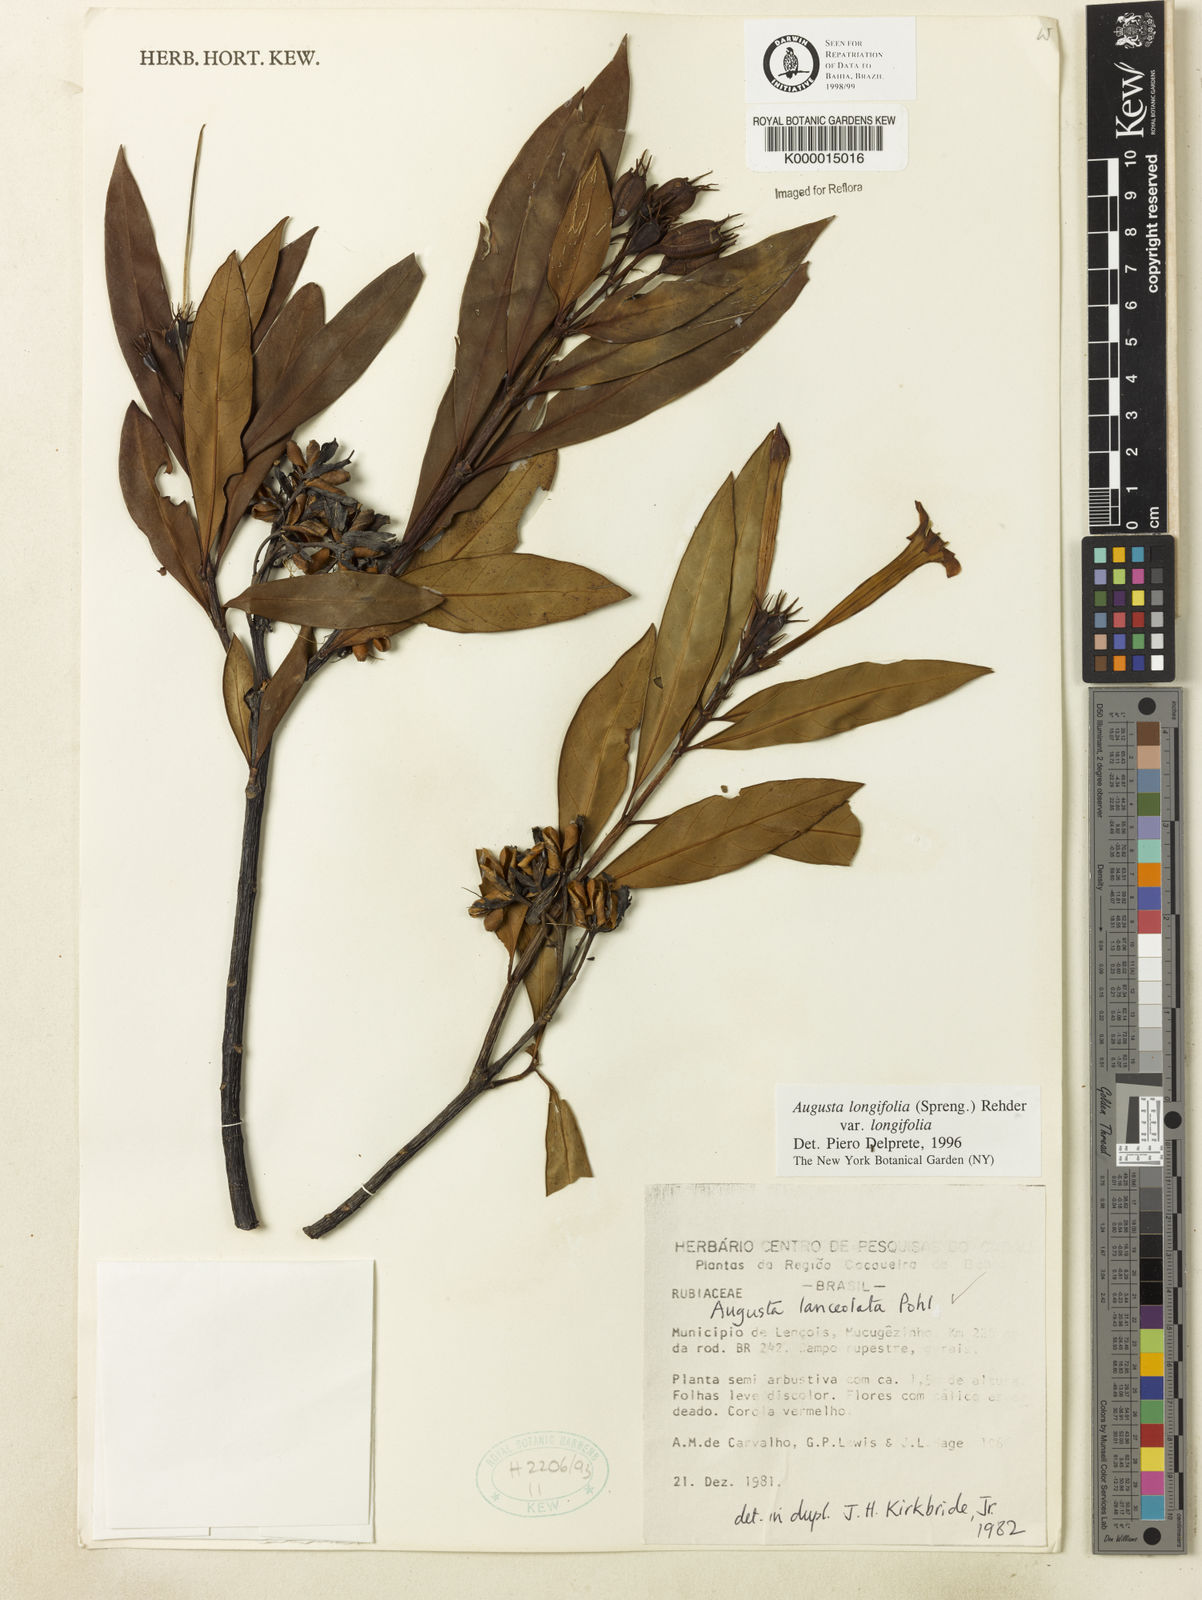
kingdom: Plantae
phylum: Tracheophyta
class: Magnoliopsida
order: Gentianales
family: Rubiaceae
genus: Augusta
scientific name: Augusta longifolia
